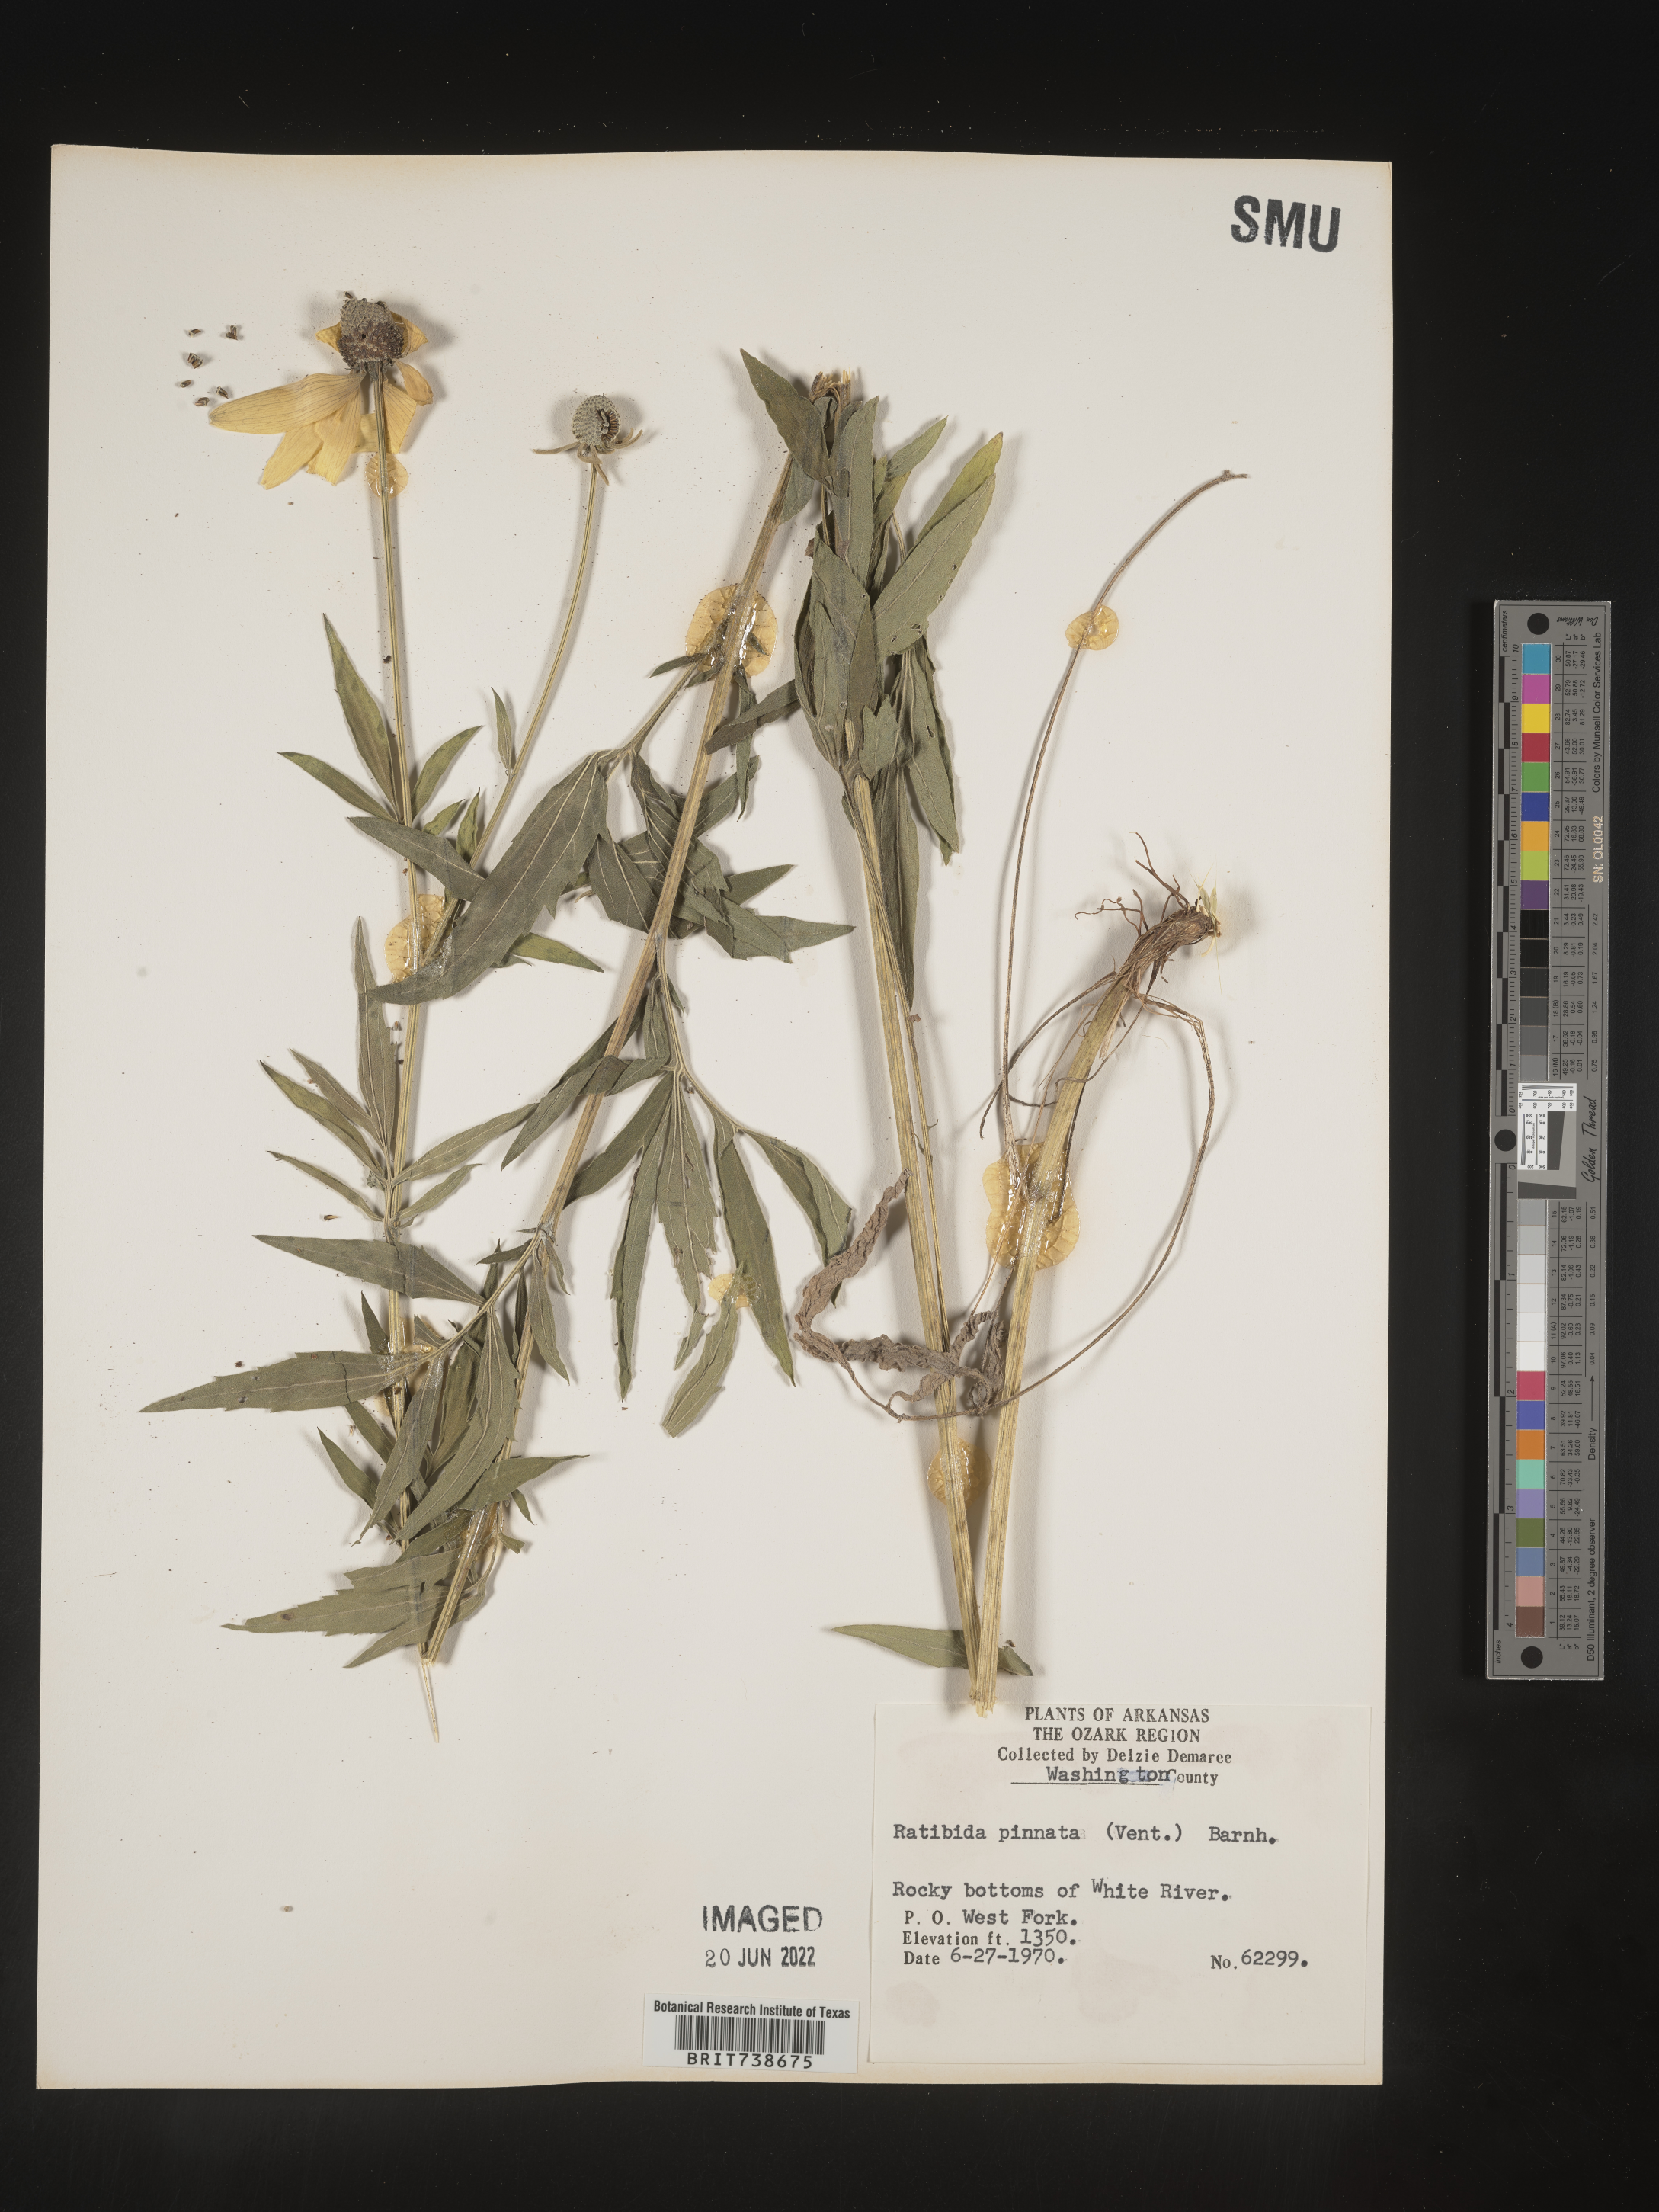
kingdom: Plantae
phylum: Tracheophyta
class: Magnoliopsida
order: Asterales
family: Asteraceae
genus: Ratibida
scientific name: Ratibida pinnata
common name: Drooping prairie-coneflower
